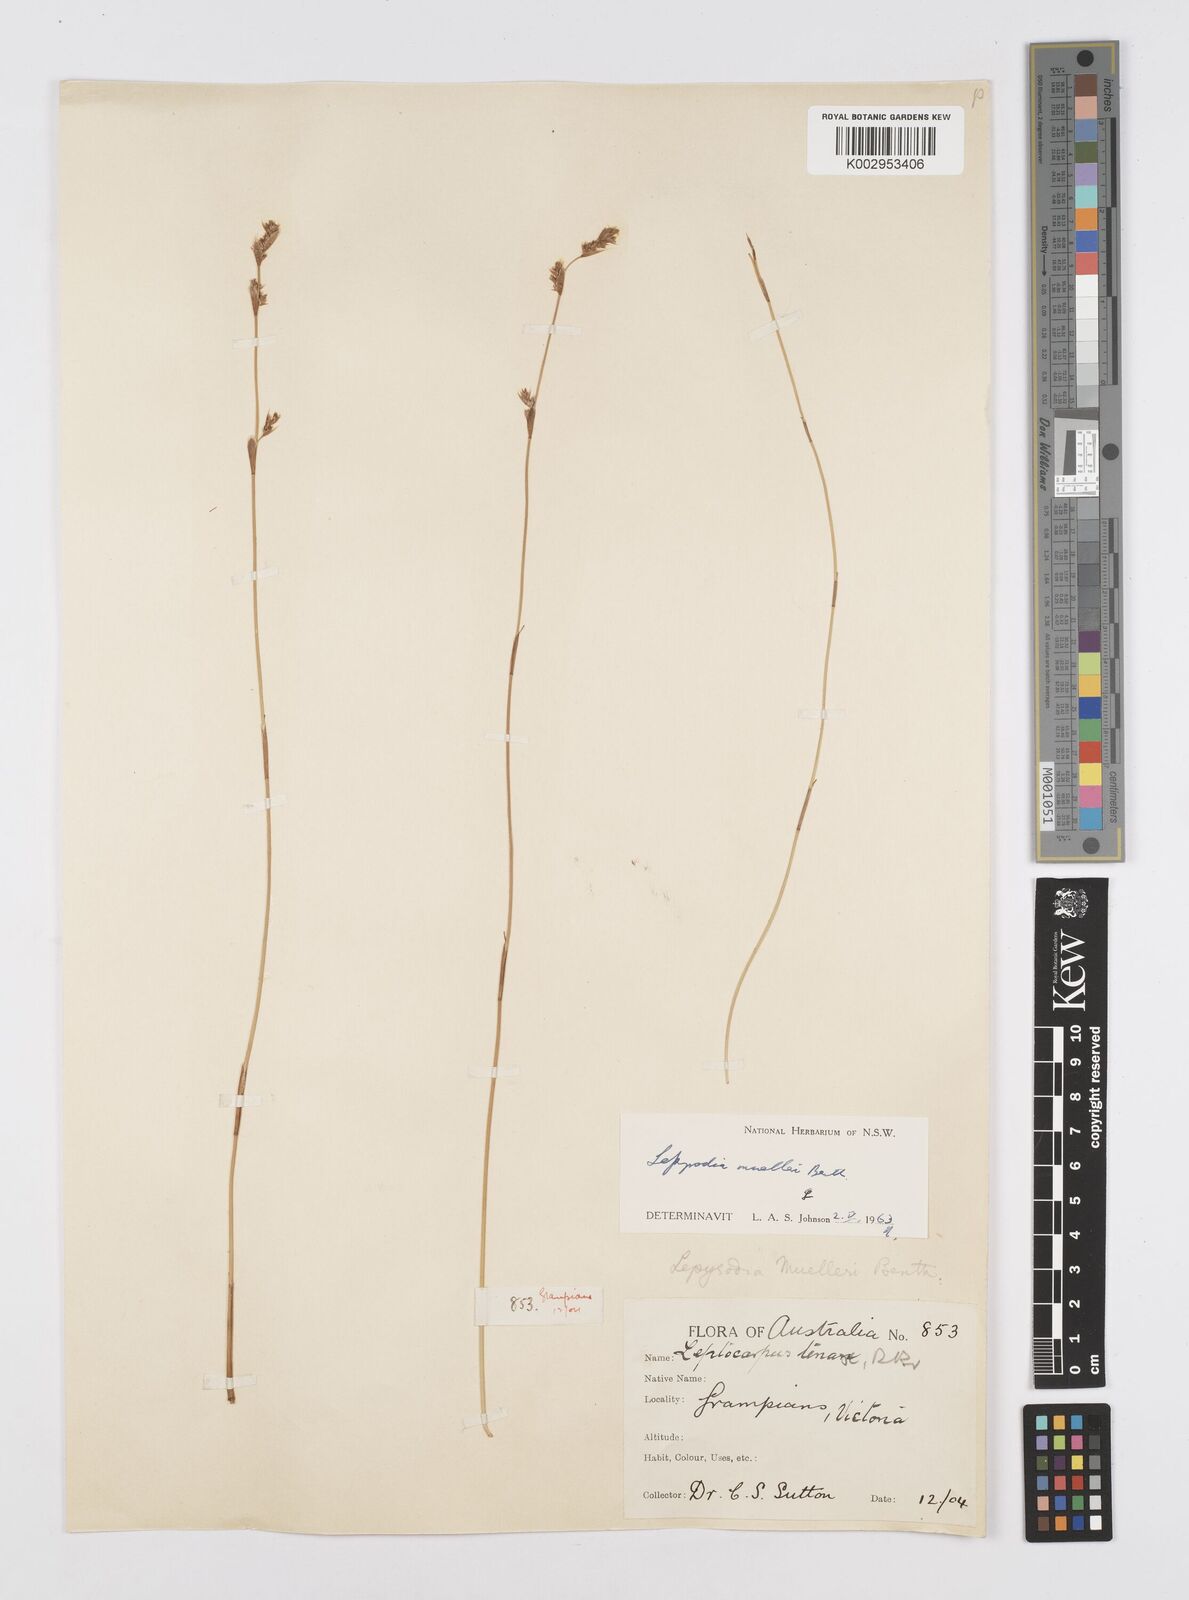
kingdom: Plantae
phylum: Tracheophyta
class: Liliopsida
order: Poales
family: Restionaceae
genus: Lepyrodia
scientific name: Lepyrodia muelleri
